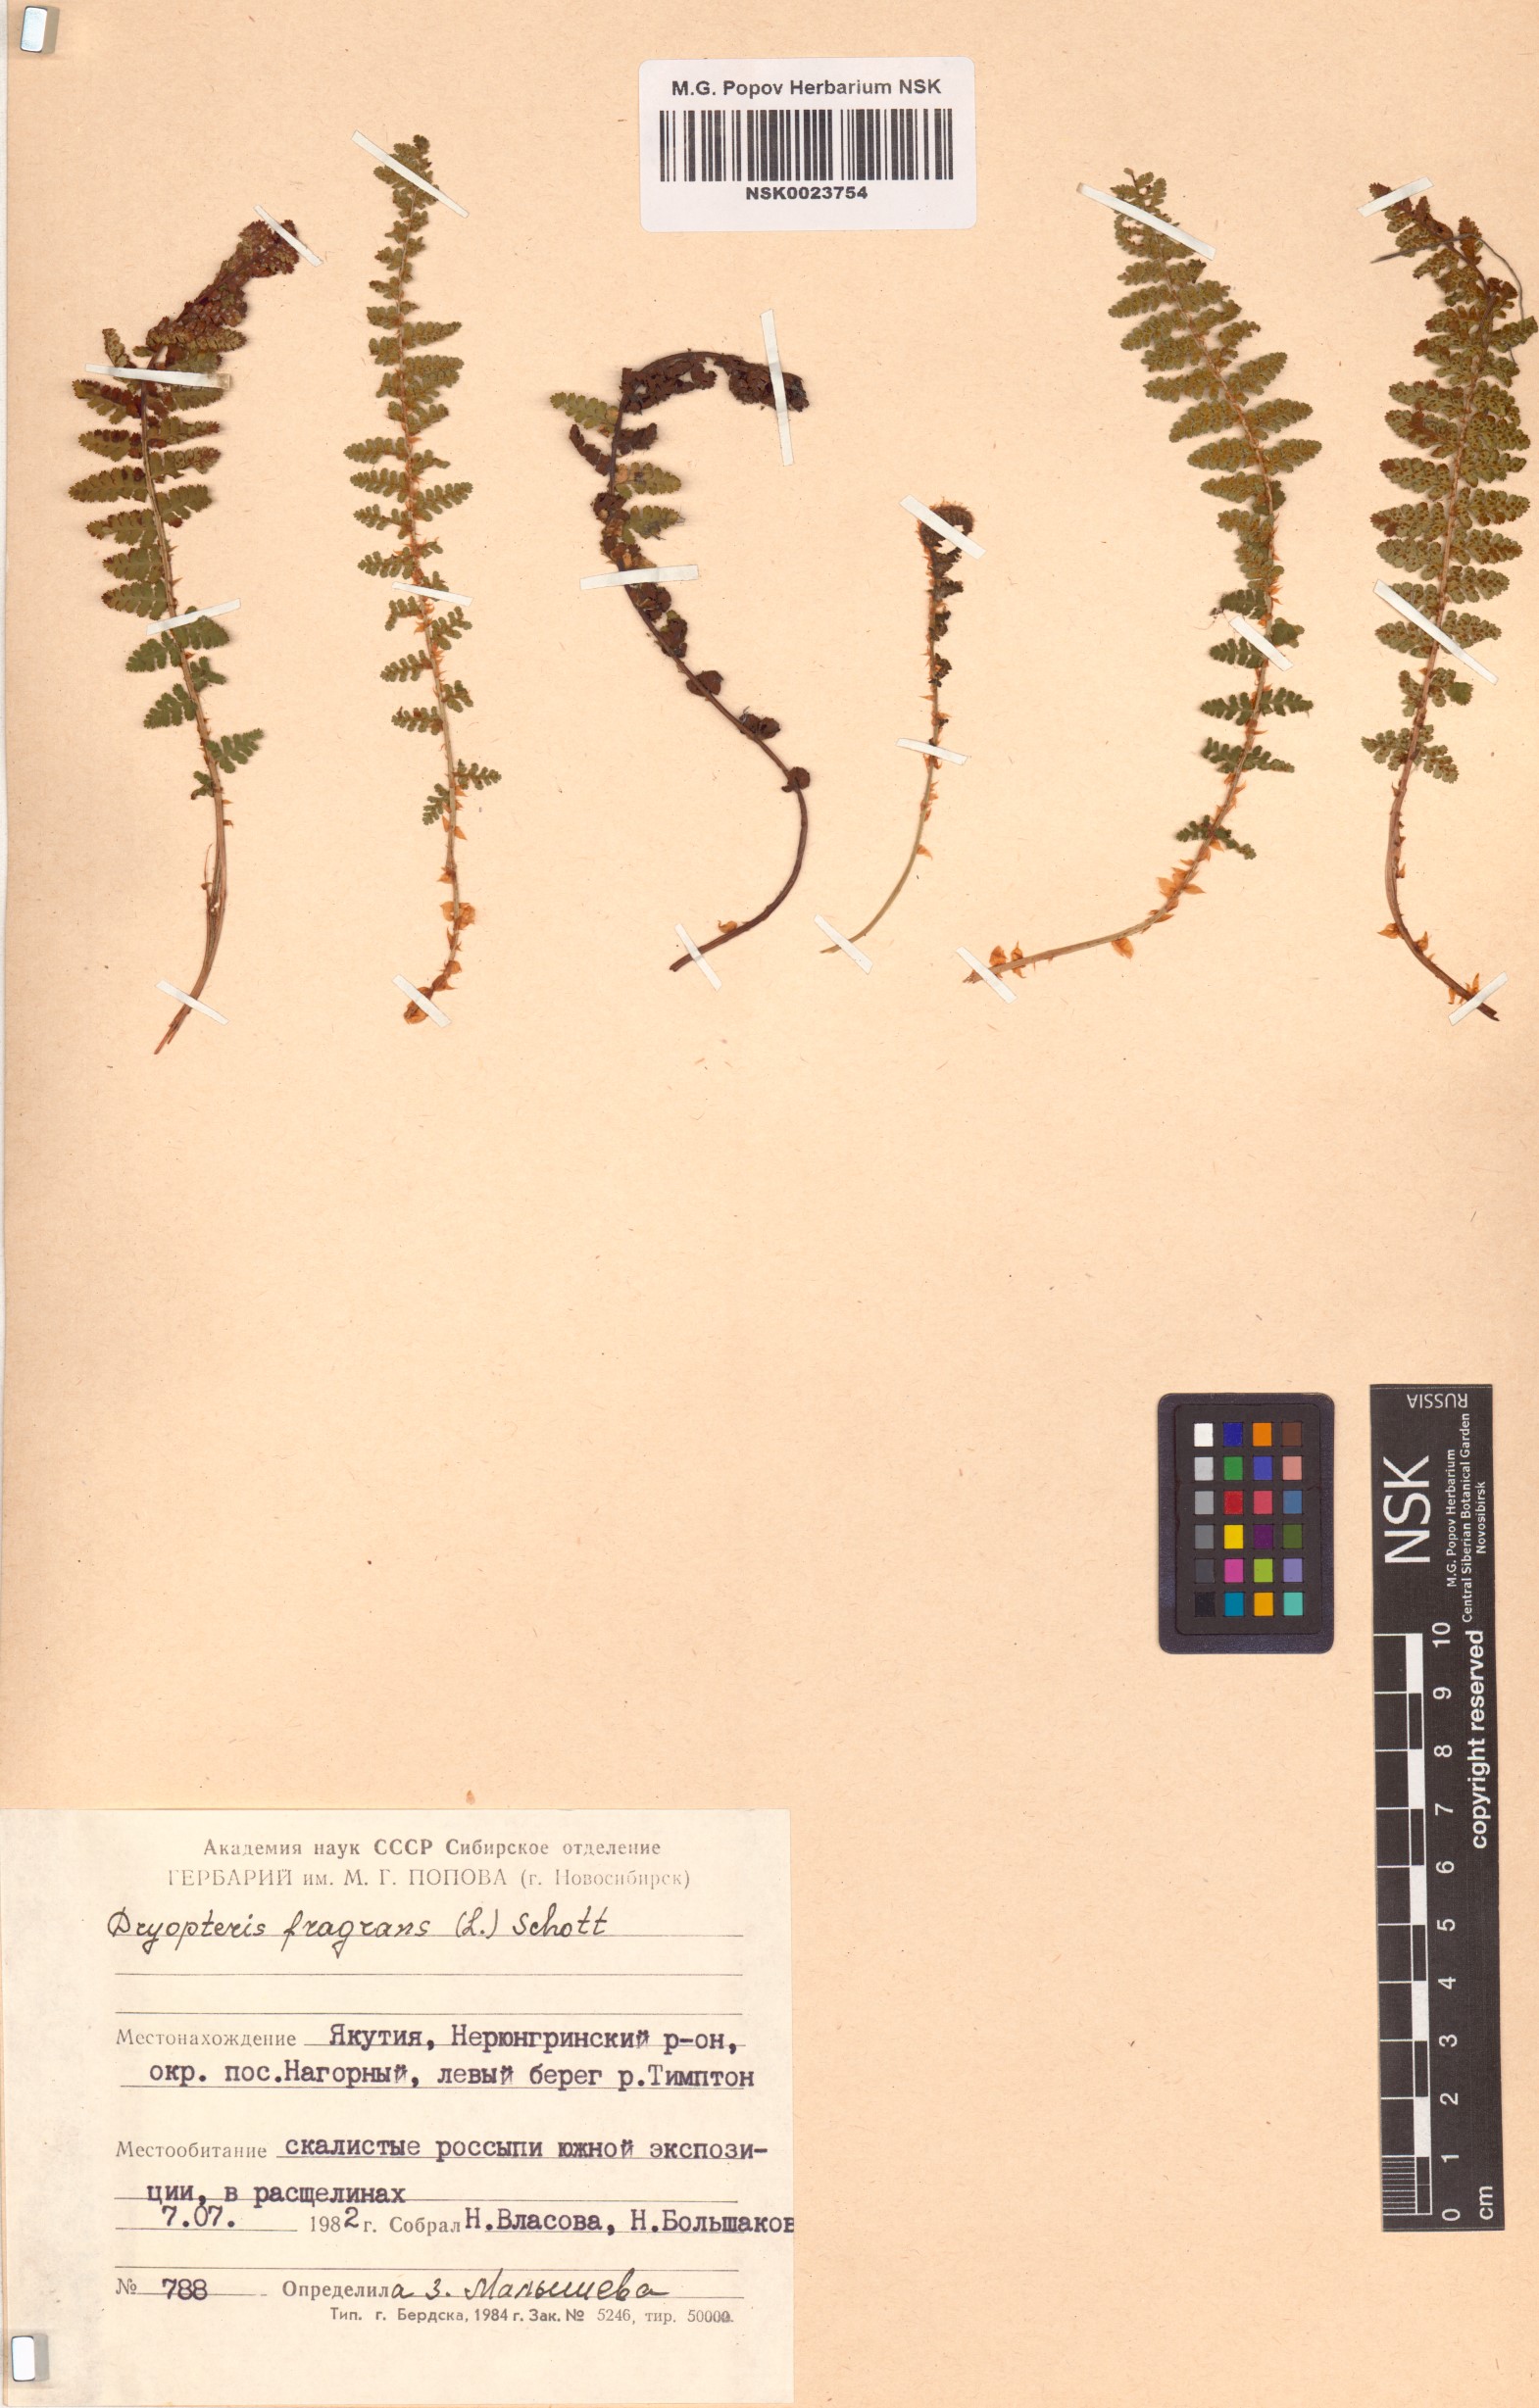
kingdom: Plantae
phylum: Tracheophyta
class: Polypodiopsida
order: Polypodiales
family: Dryopteridaceae
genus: Dryopteris
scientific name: Dryopteris fragrans
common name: Fragrant wood fern
